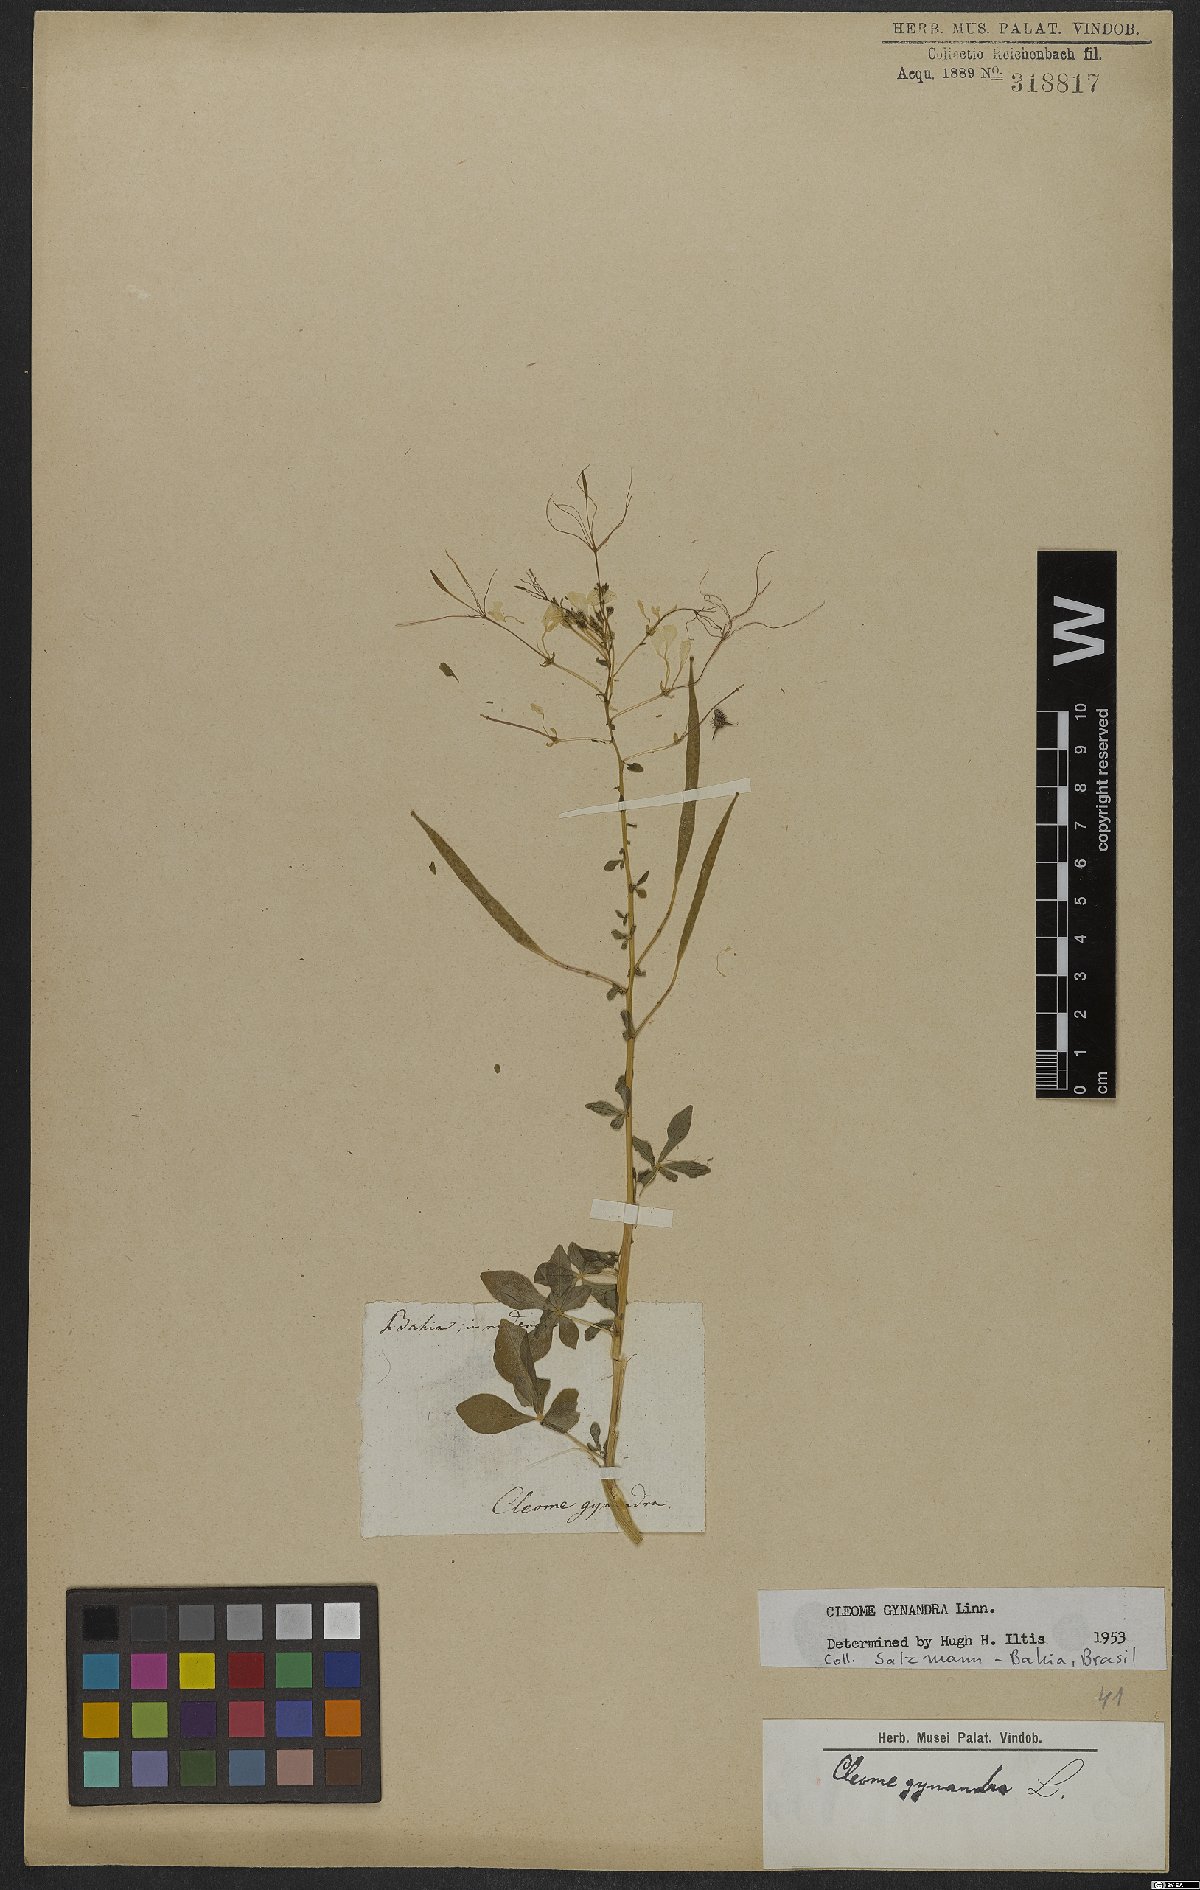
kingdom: Plantae
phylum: Tracheophyta
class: Magnoliopsida
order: Brassicales
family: Cleomaceae
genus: Gynandropsis
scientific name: Gynandropsis gynandra
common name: Spiderwisp
